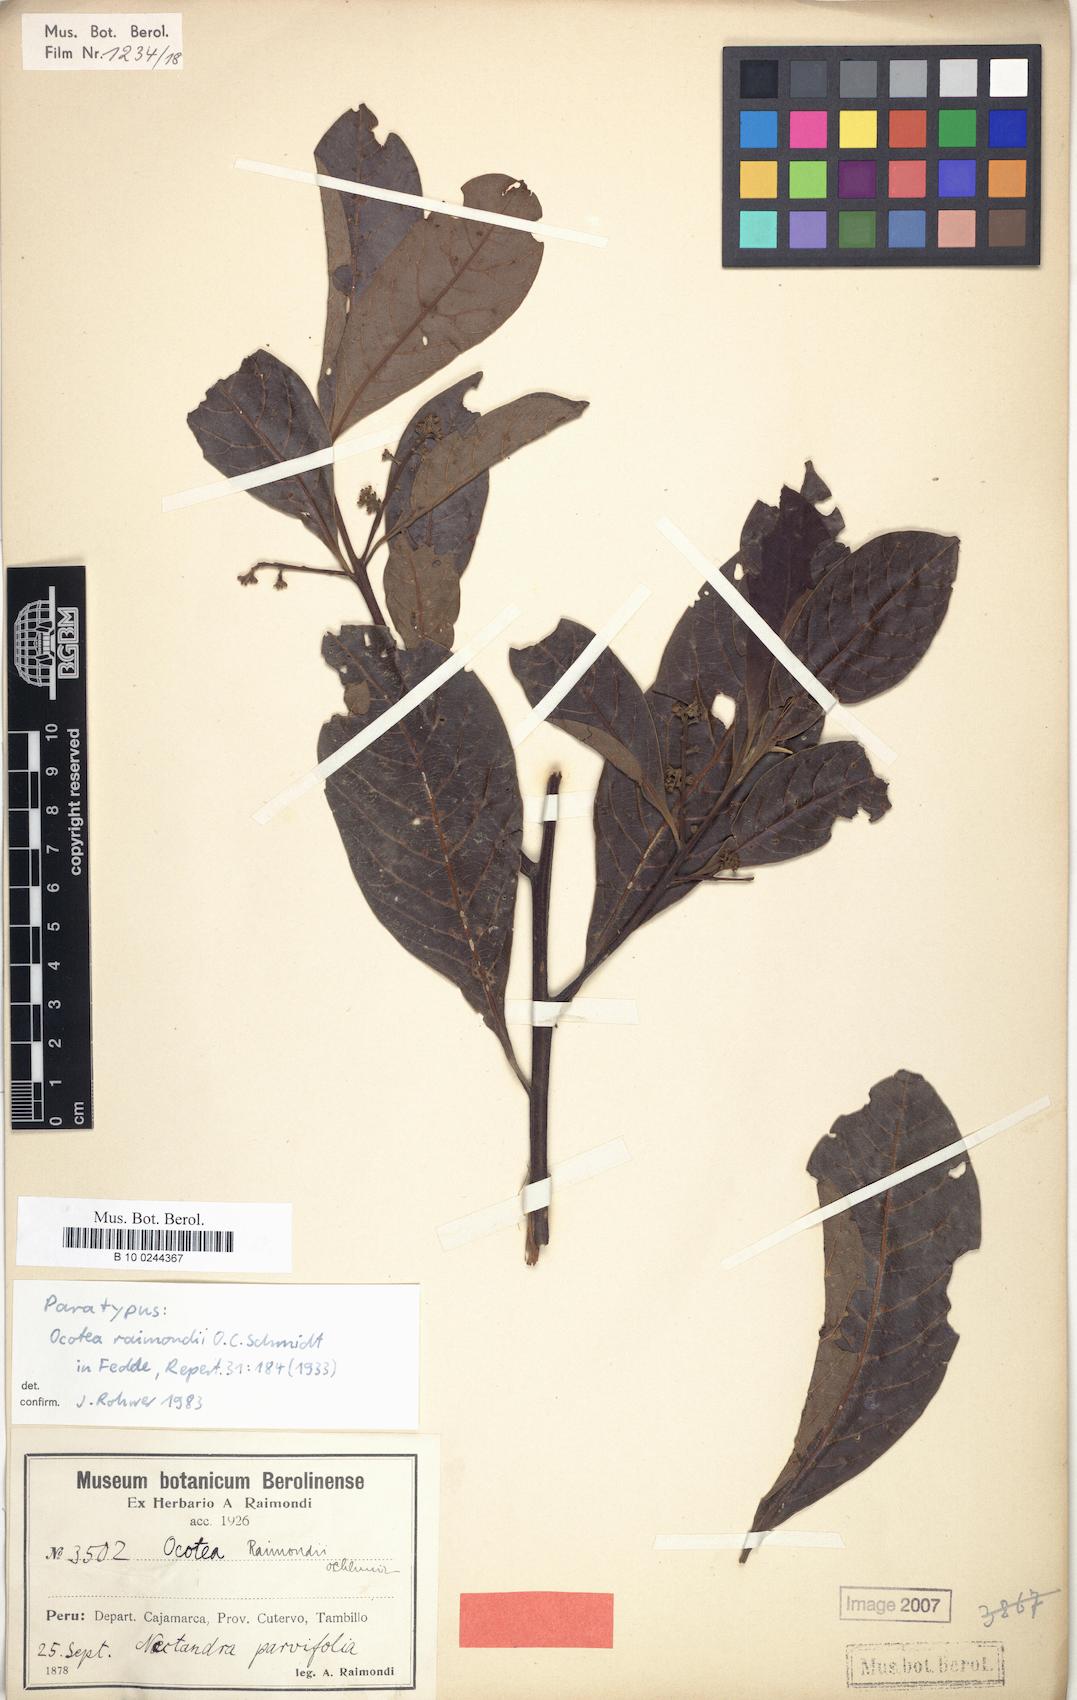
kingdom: Plantae
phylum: Tracheophyta
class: Magnoliopsida
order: Laurales
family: Lauraceae
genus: Ocotea
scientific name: Ocotea cuneifolia
